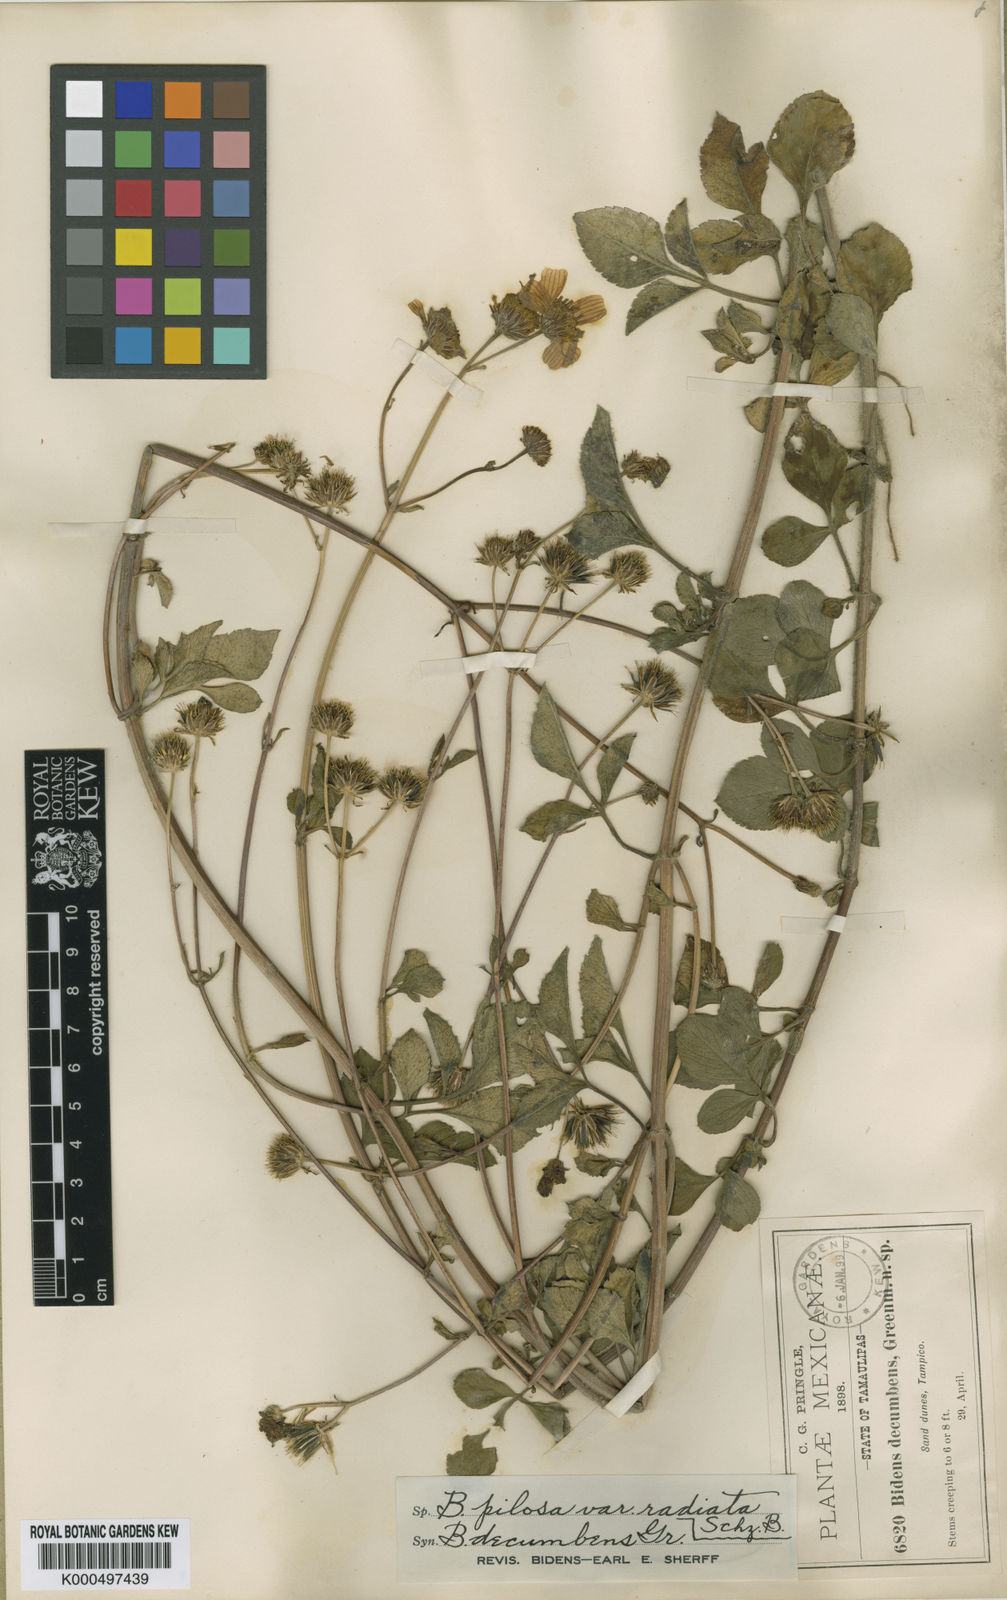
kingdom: Plantae
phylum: Tracheophyta
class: Magnoliopsida
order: Asterales
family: Asteraceae
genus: Bidens
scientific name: Bidens alba
